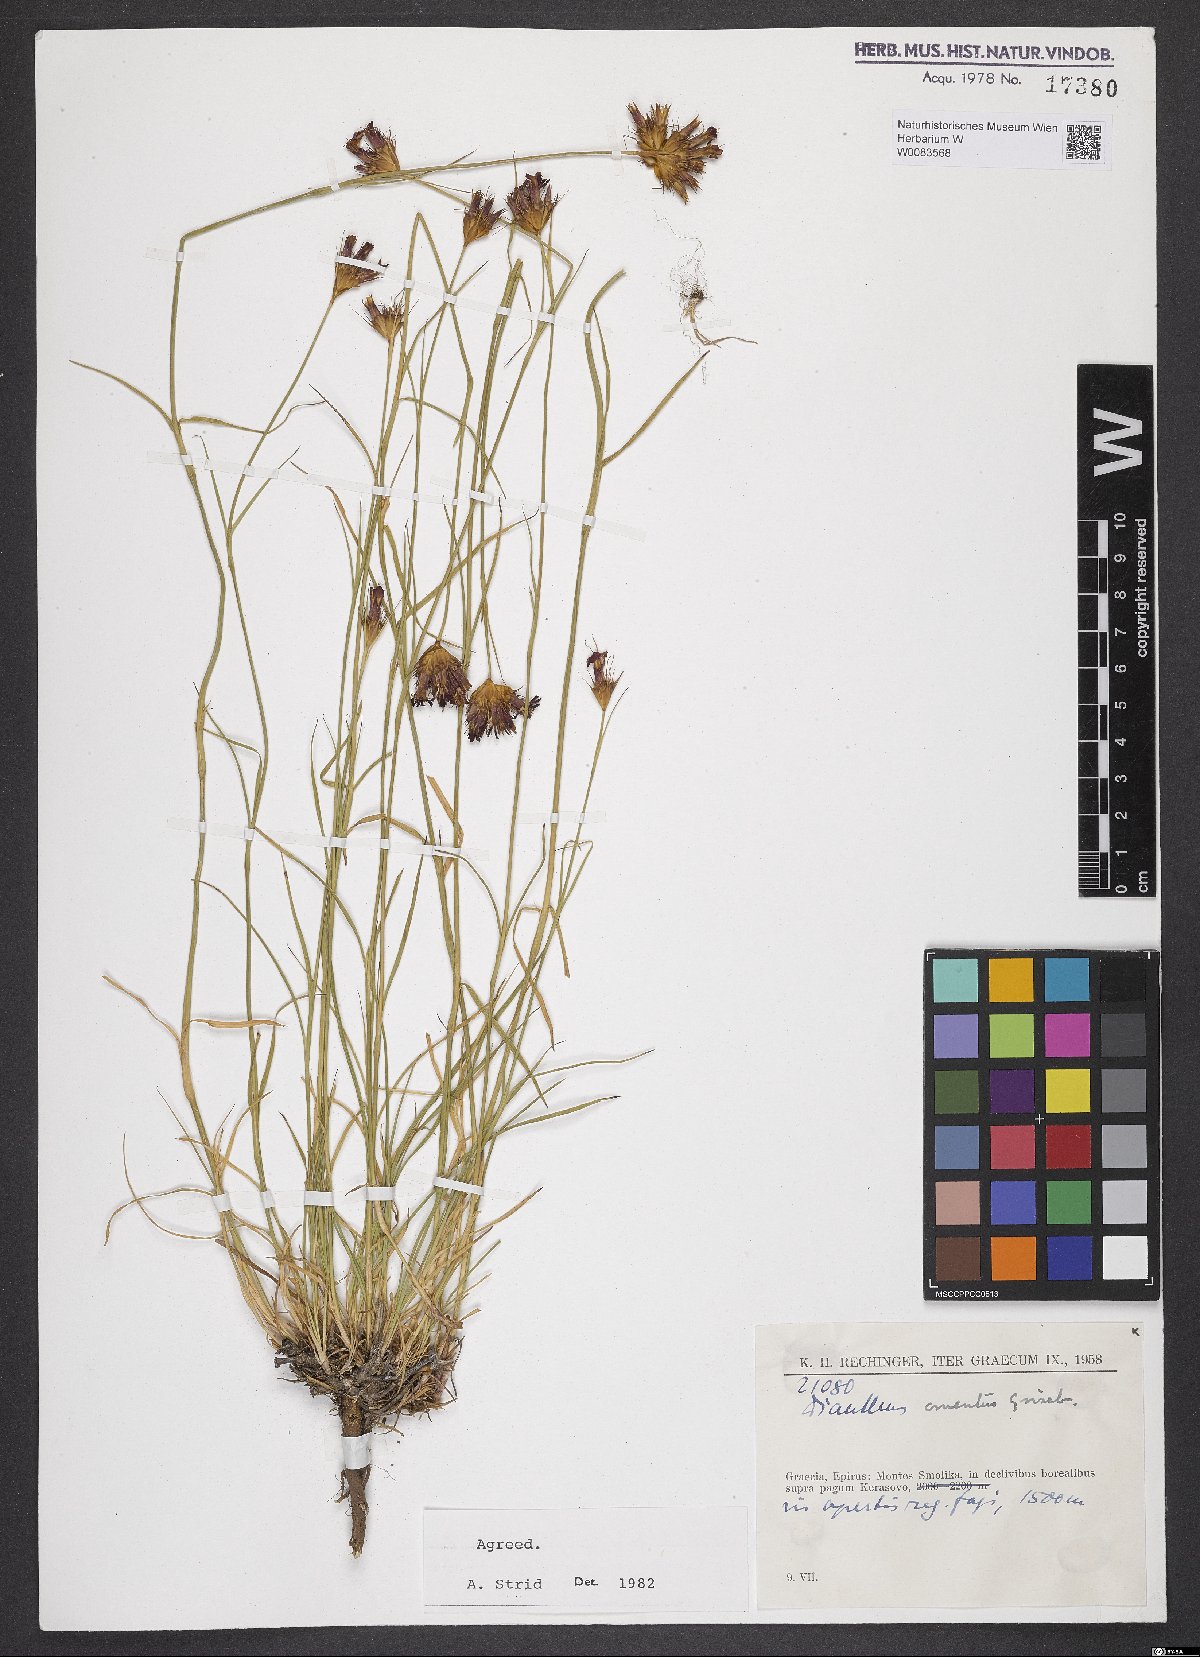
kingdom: Plantae
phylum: Tracheophyta
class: Magnoliopsida
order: Caryophyllales
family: Caryophyllaceae
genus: Dianthus
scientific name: Dianthus cruentus
